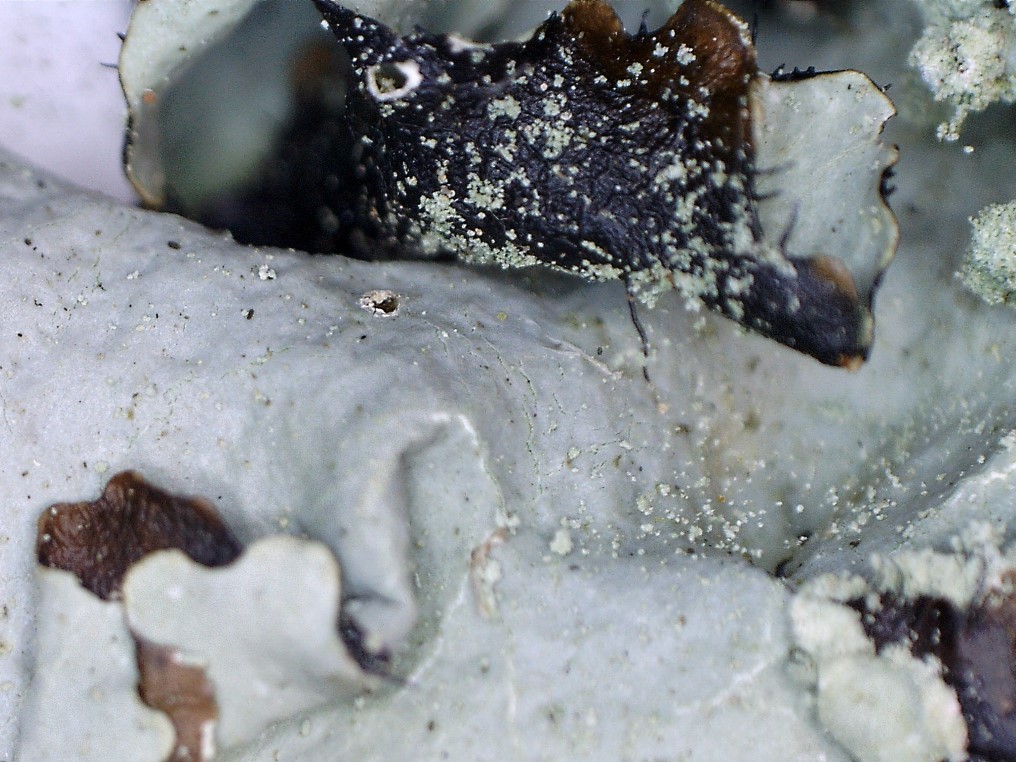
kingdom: Fungi
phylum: Ascomycota
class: Lecanoromycetes
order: Lecanorales
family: Parmeliaceae
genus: Parmotrema
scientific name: Parmotrema perlatum
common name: trådet skållav
